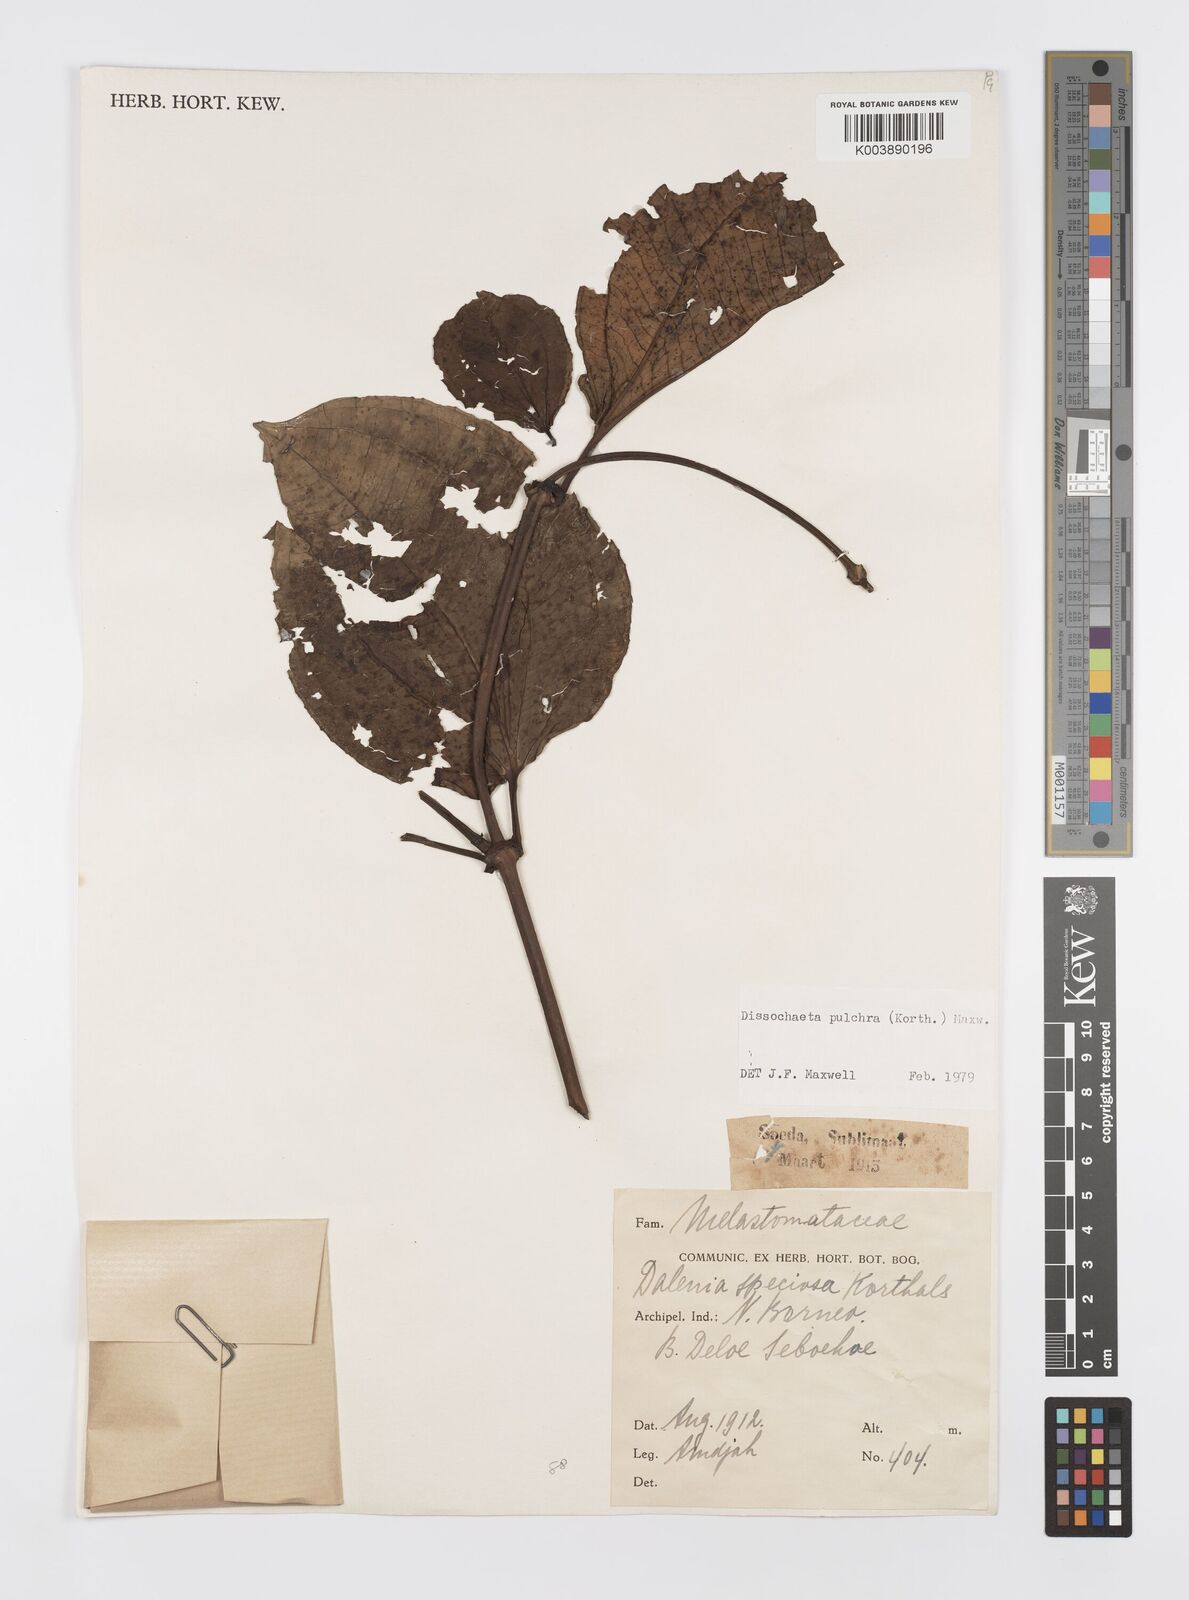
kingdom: Plantae
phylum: Tracheophyta
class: Magnoliopsida
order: Myrtales
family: Melastomataceae
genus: Dalenia
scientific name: Dalenia pulchra
